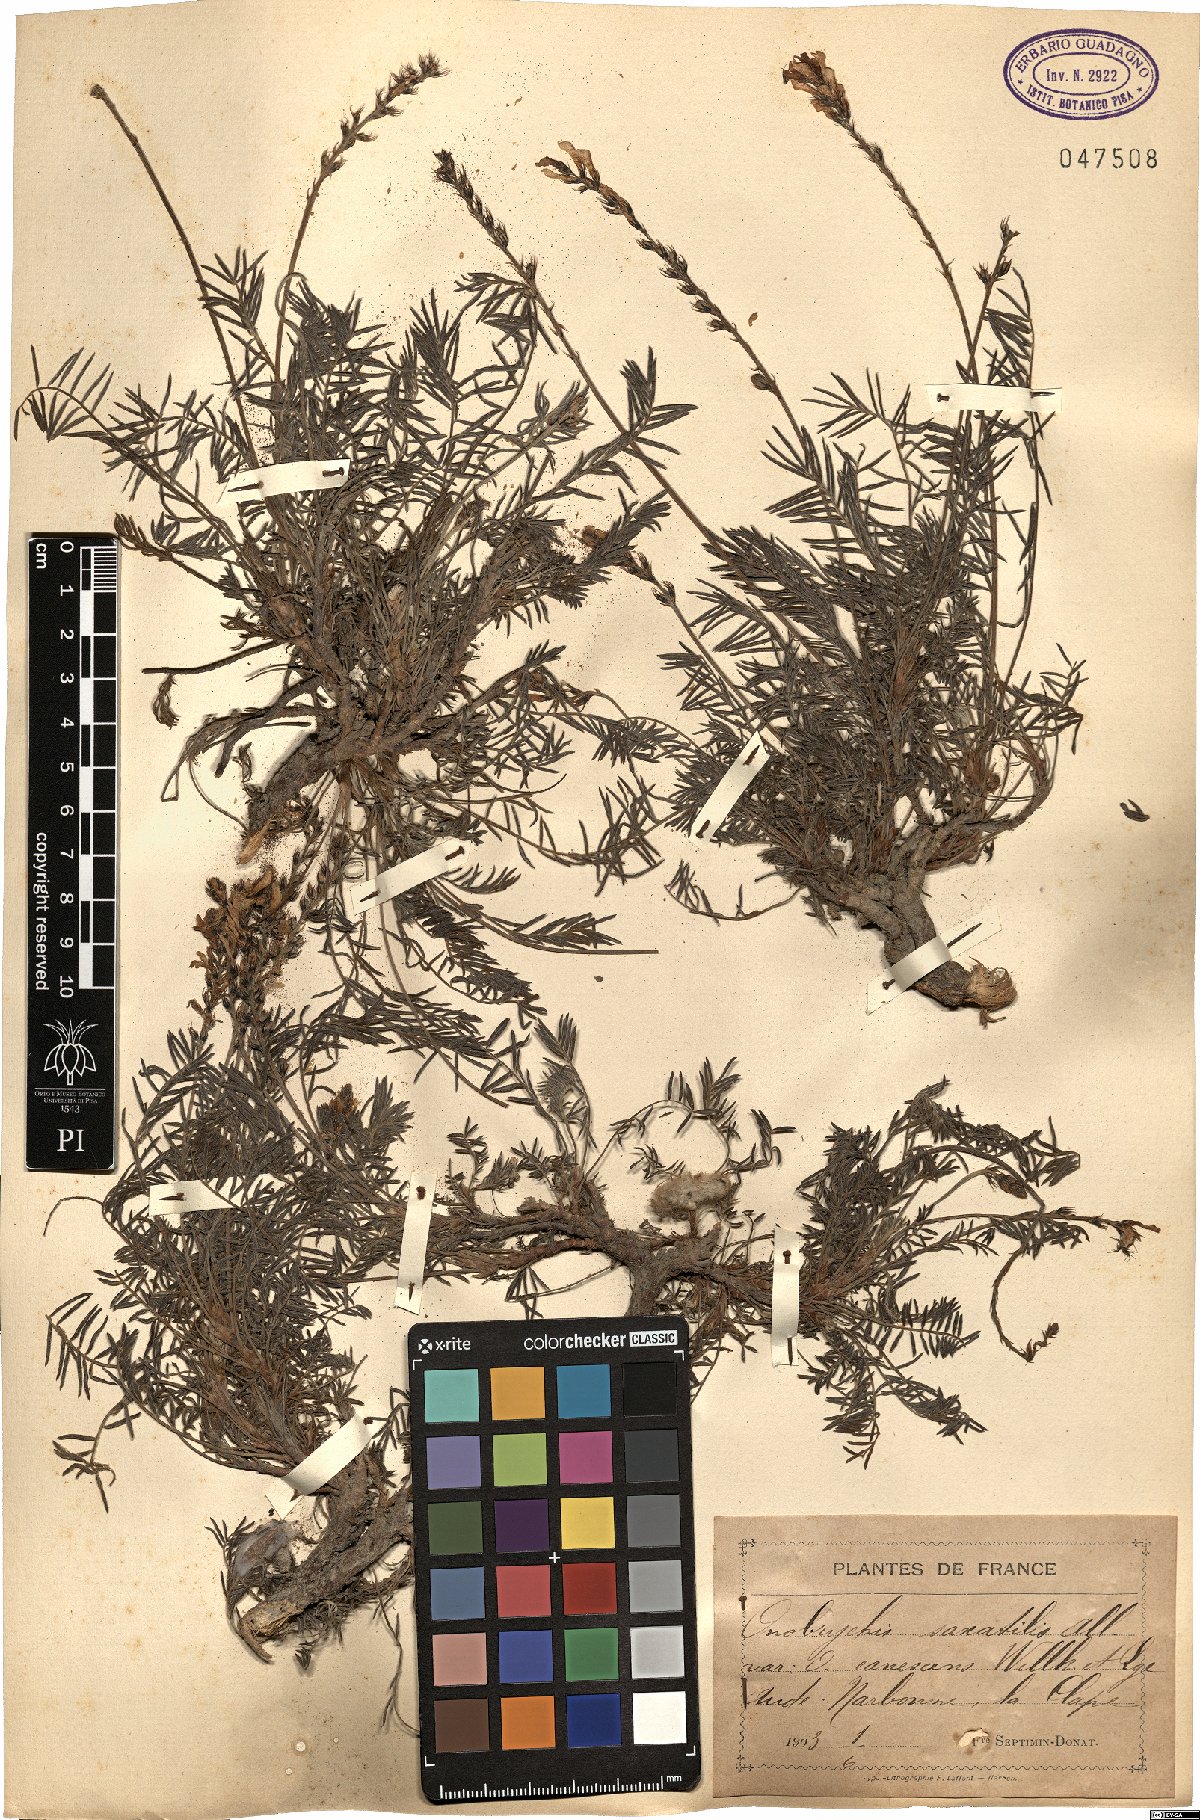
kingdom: Plantae
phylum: Tracheophyta
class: Magnoliopsida
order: Fabales
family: Fabaceae
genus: Onobrychis
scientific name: Onobrychis saxatilis
